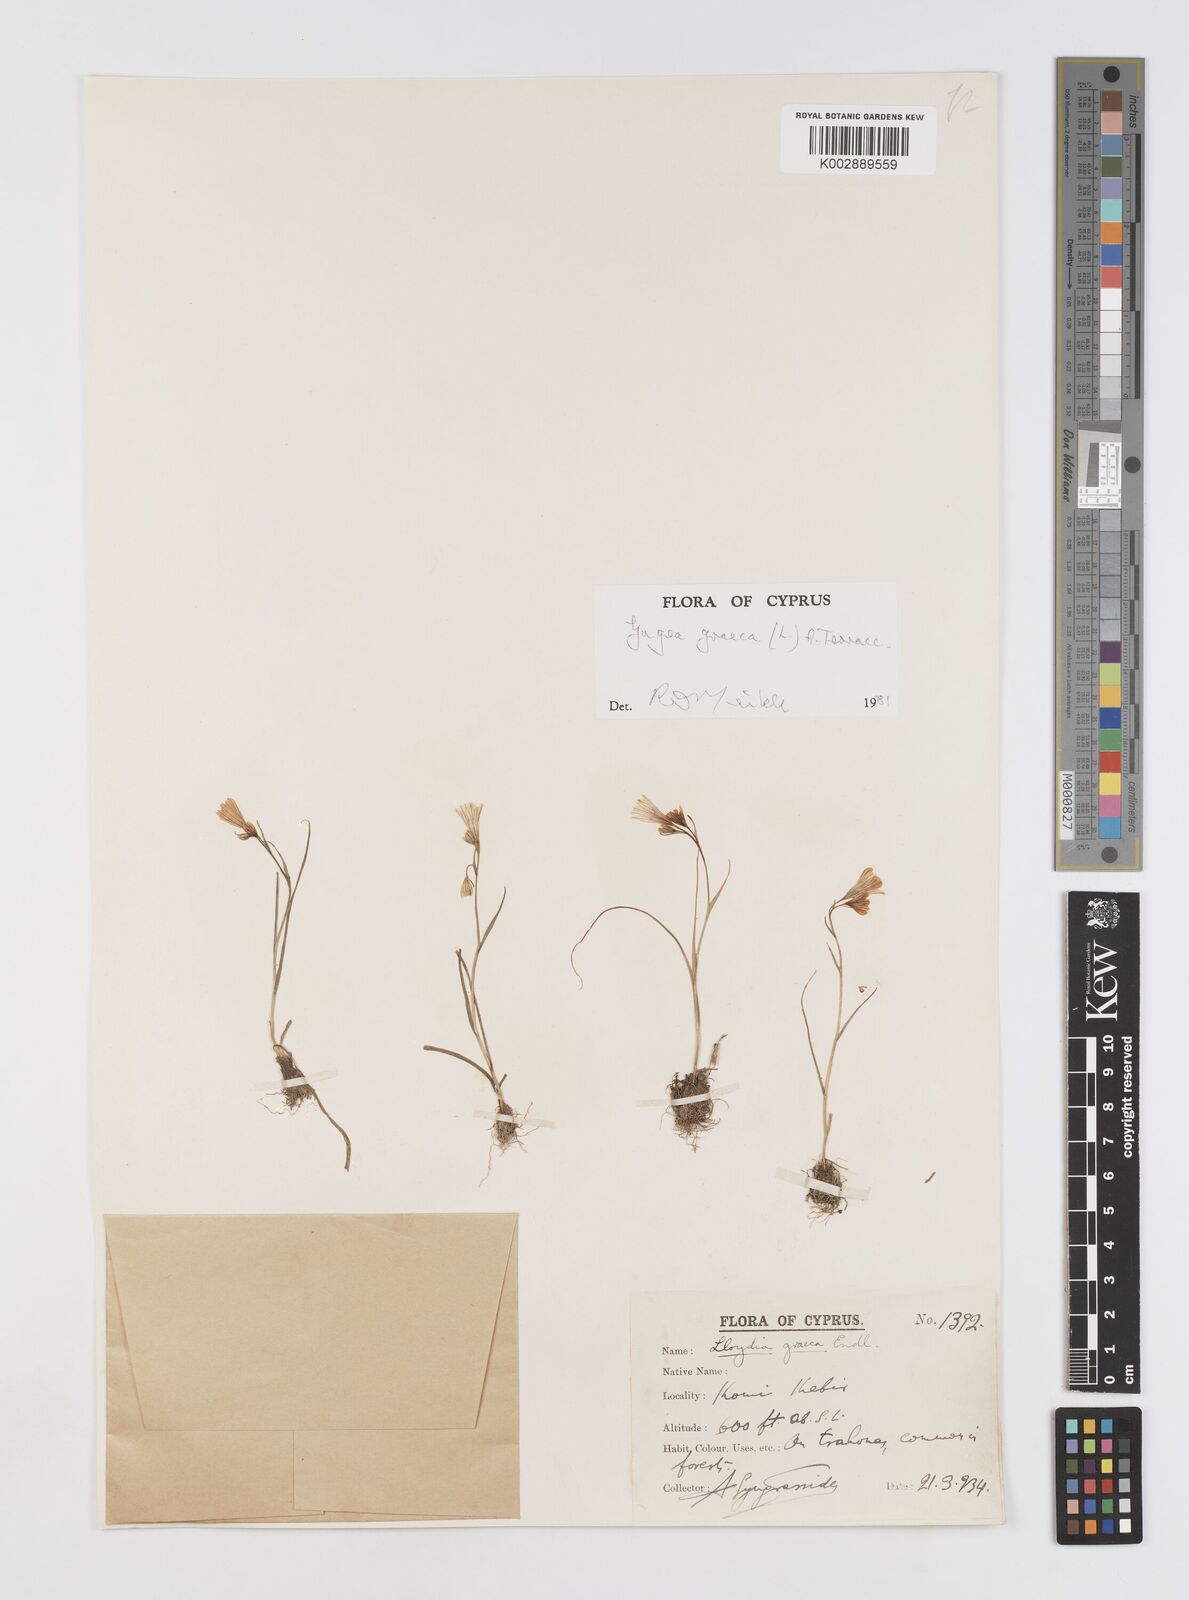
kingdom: Plantae
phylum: Tracheophyta
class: Liliopsida
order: Liliales
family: Liliaceae
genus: Gagea
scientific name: Gagea graeca
